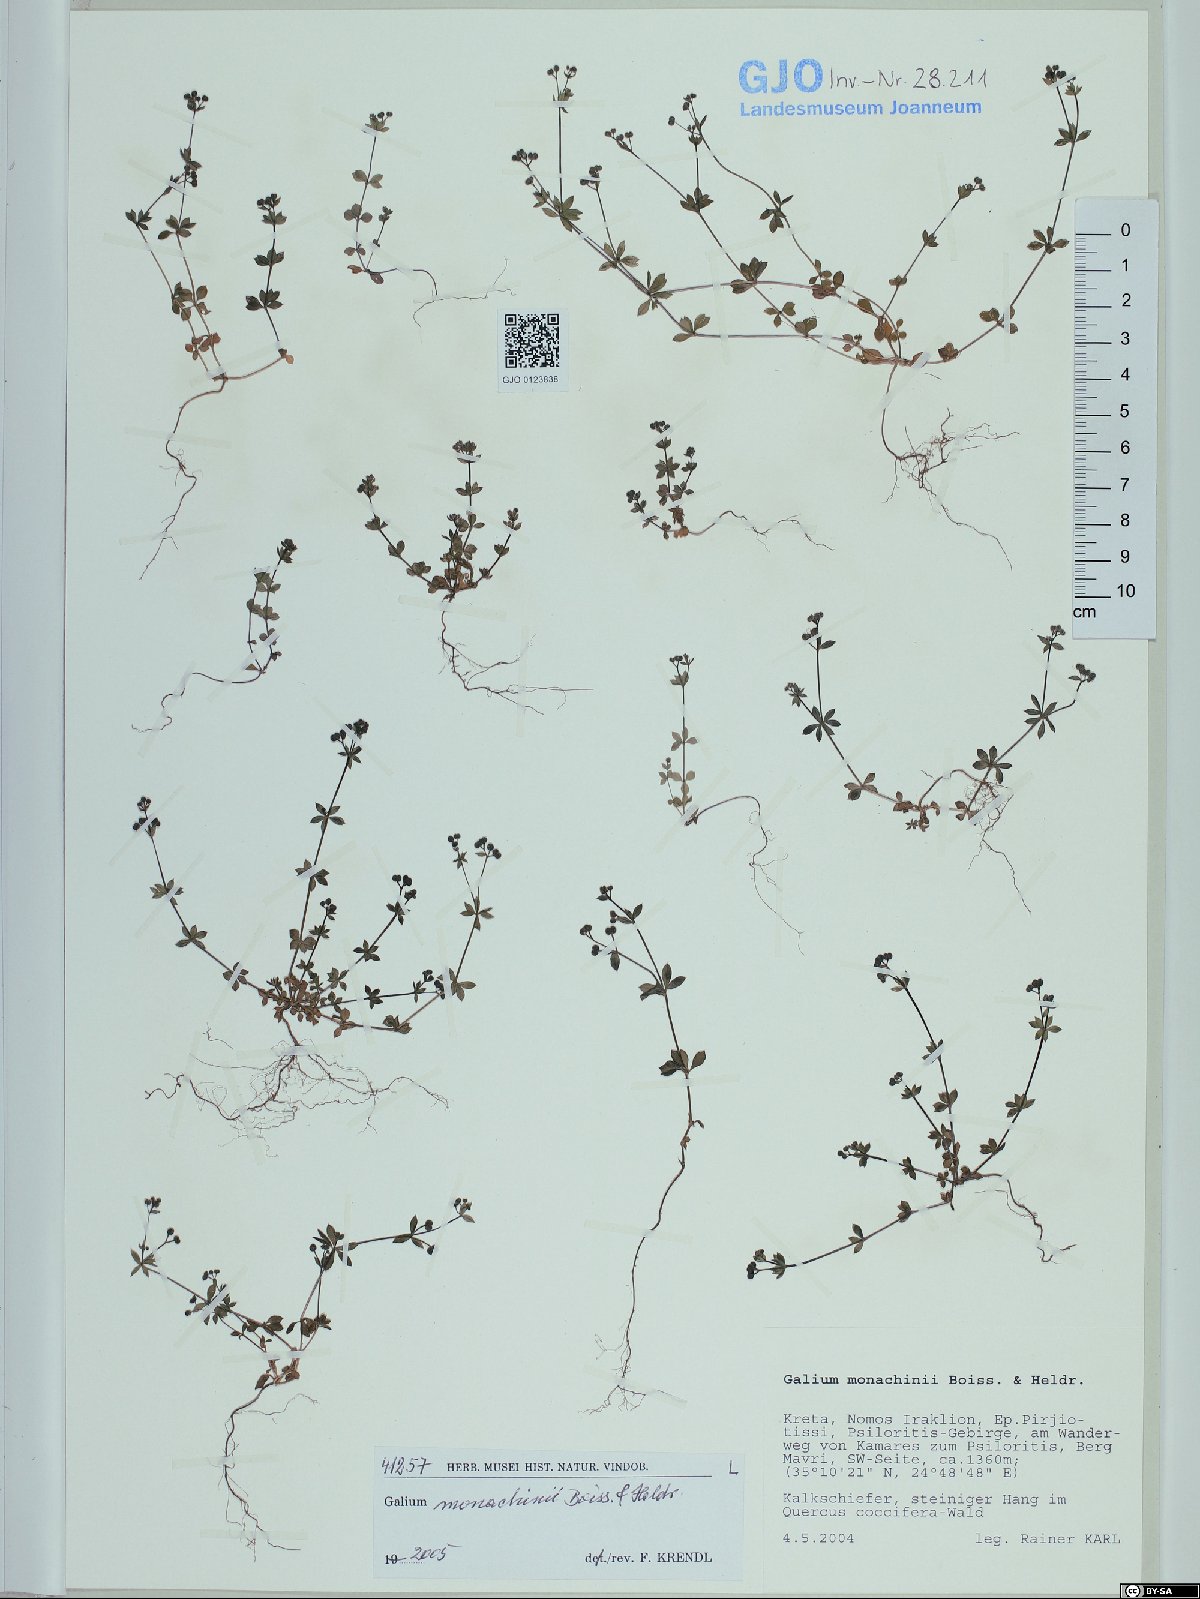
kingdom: Plantae
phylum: Tracheophyta
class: Magnoliopsida
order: Gentianales
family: Rubiaceae
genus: Galium
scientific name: Galium monachinii
